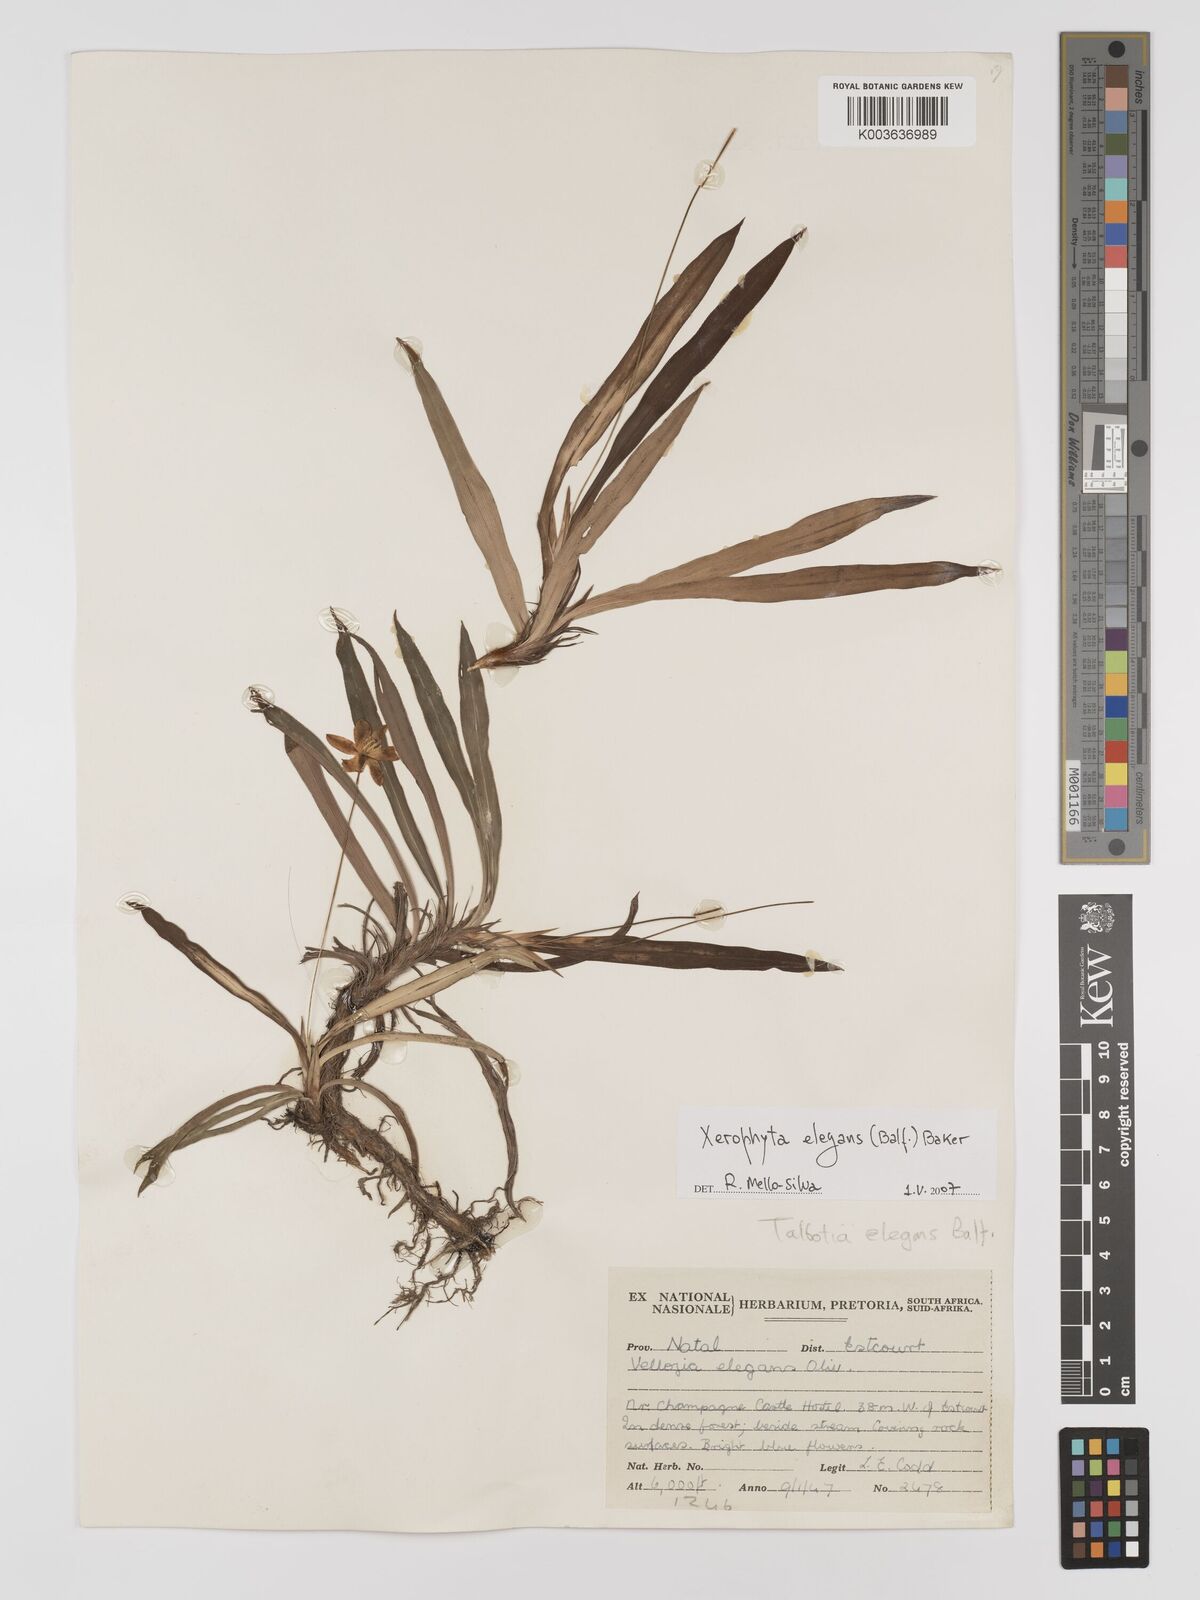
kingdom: Plantae
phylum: Tracheophyta
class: Liliopsida
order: Pandanales
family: Velloziaceae
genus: Xerophyta
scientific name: Xerophyta elegans
